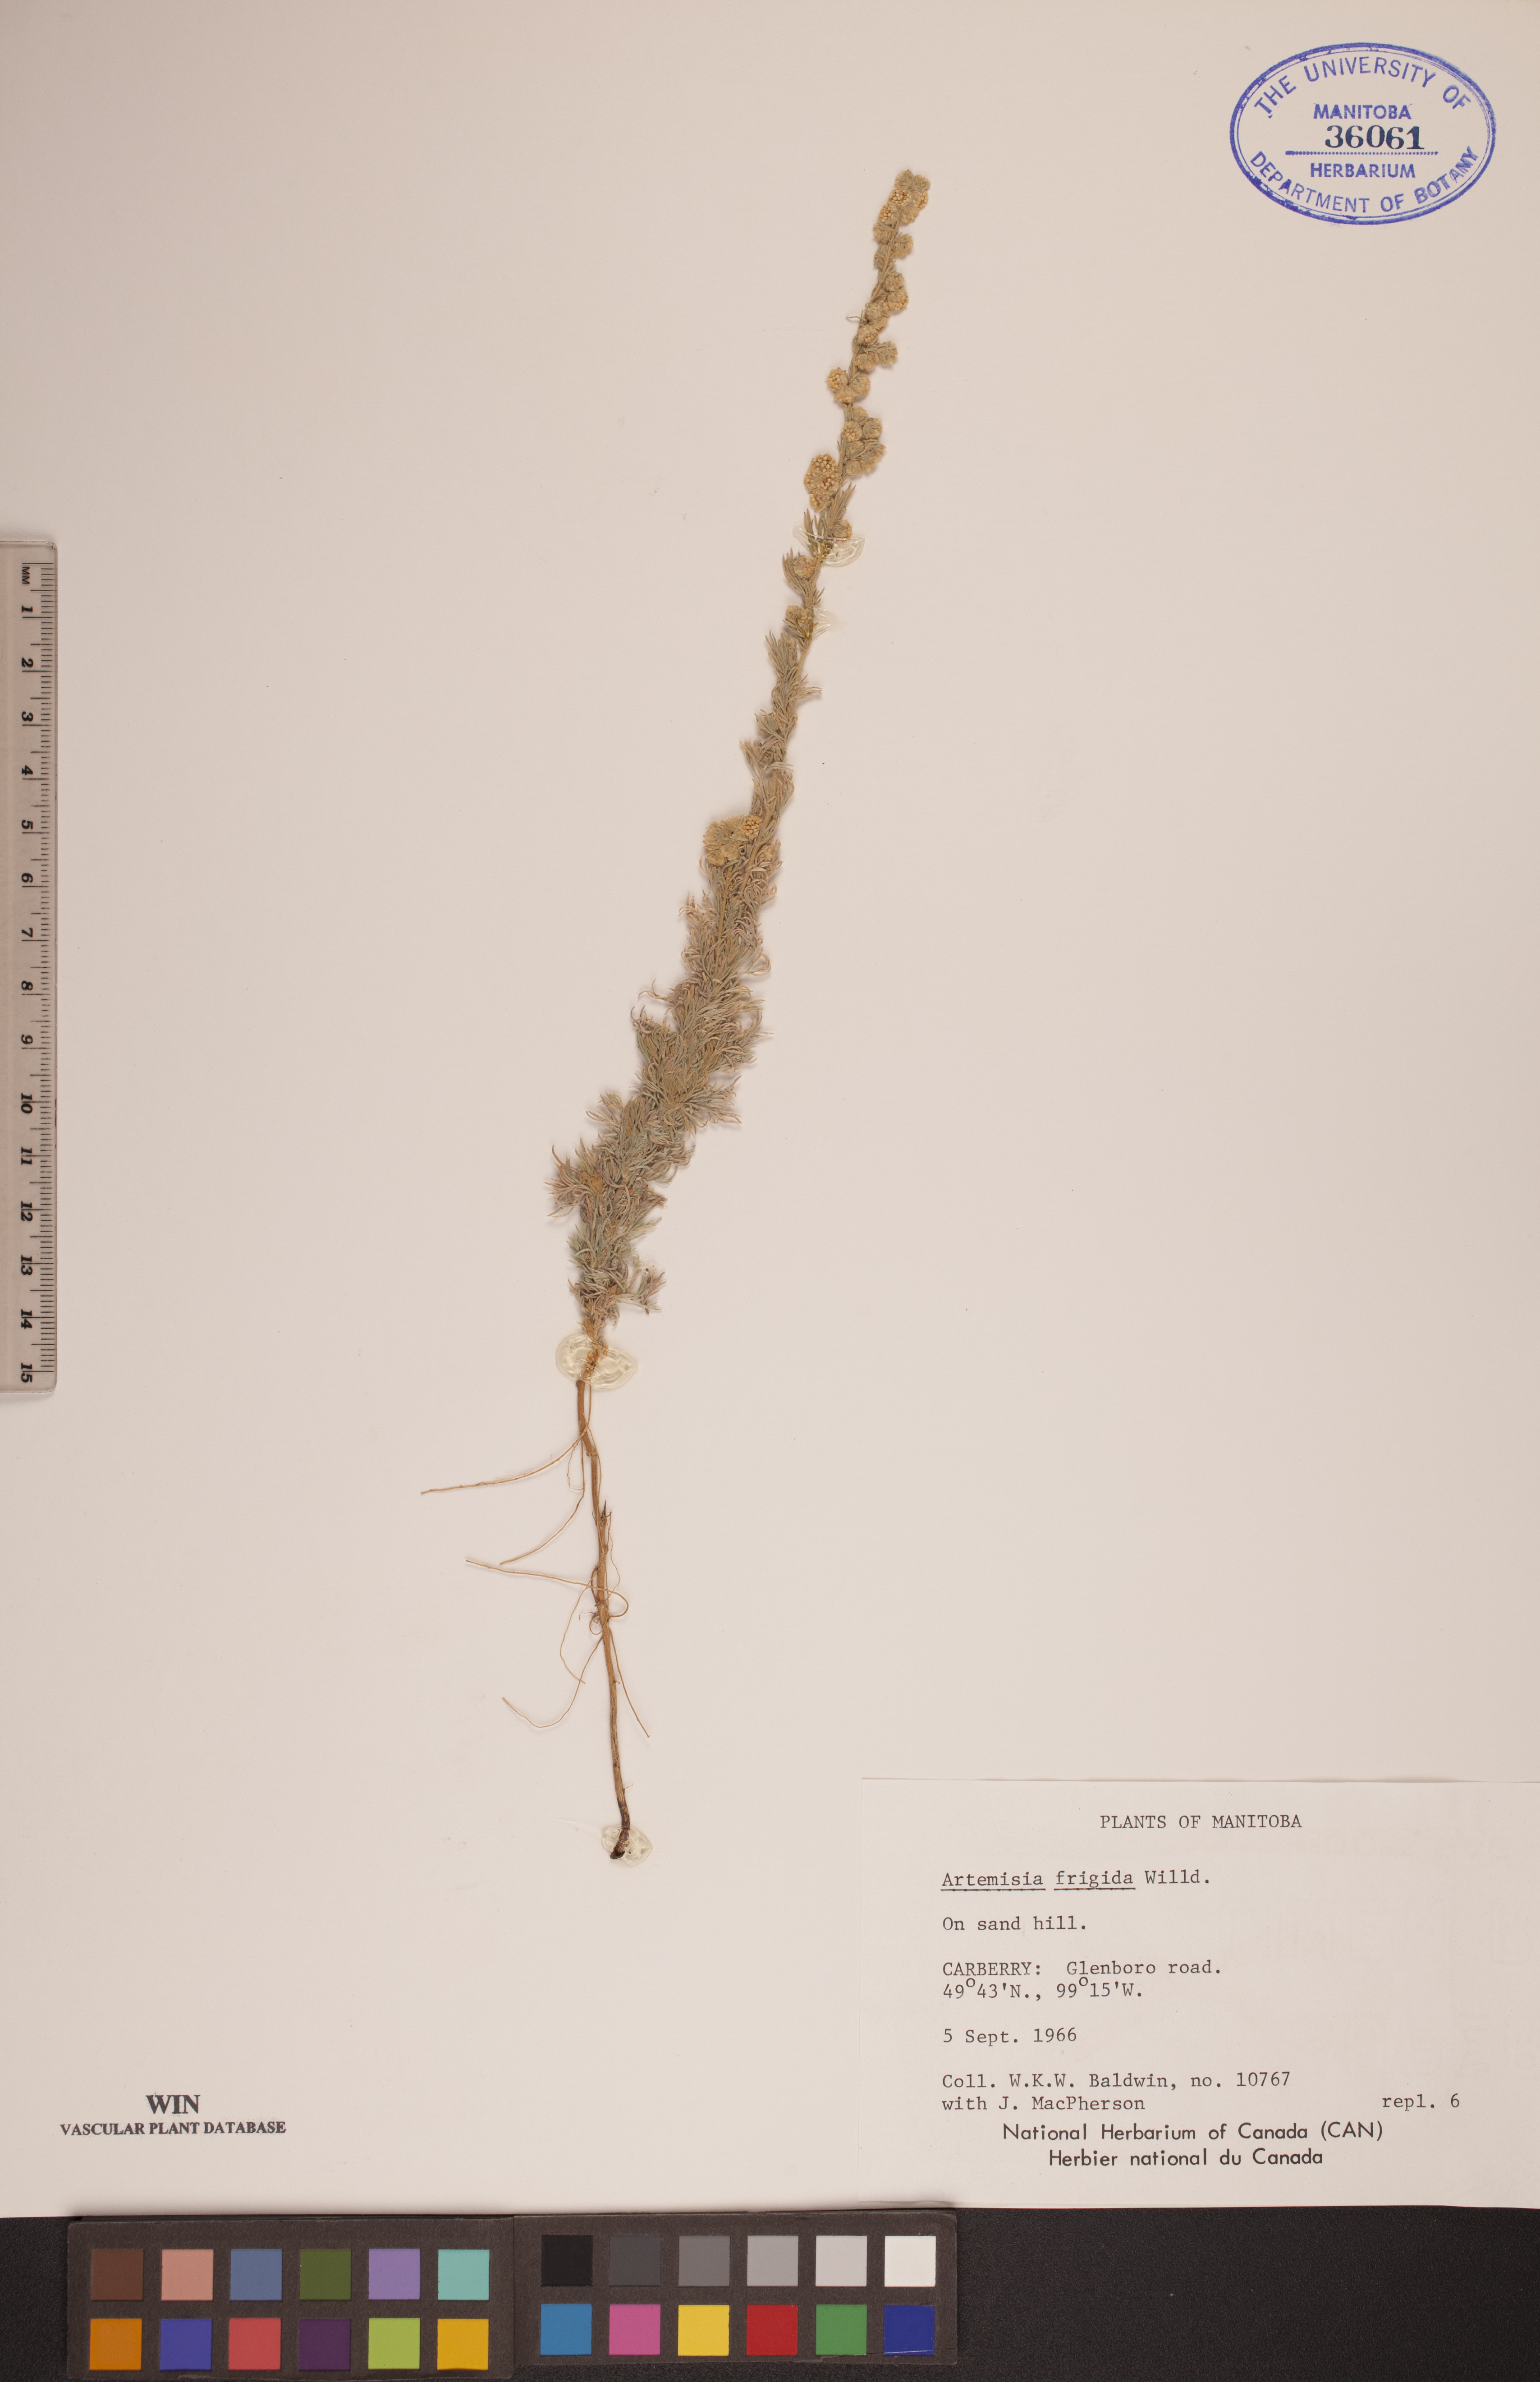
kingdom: Plantae
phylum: Tracheophyta
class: Magnoliopsida
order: Asterales
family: Asteraceae
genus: Artemisia
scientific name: Artemisia frigida
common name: Prairie sagewort
